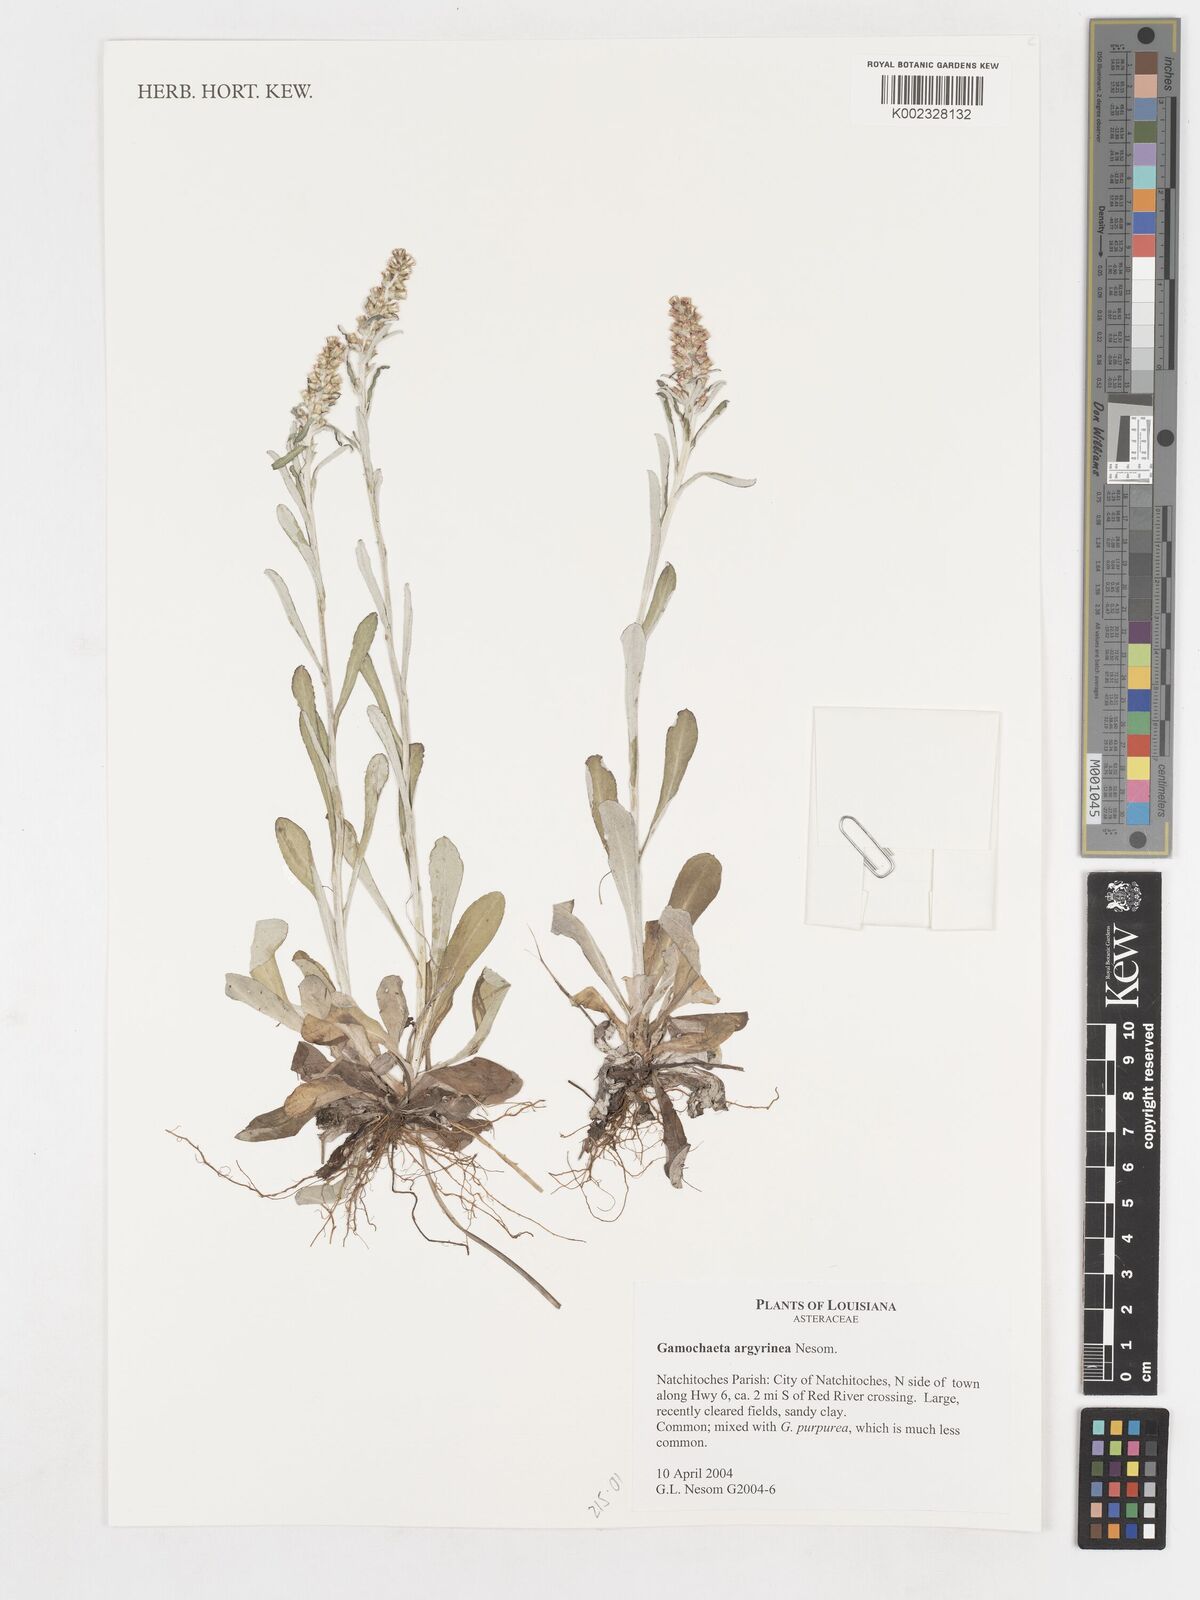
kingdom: Plantae
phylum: Tracheophyta
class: Magnoliopsida
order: Asterales
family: Asteraceae
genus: Gamochaeta
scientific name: Gamochaeta argyrinea
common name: Silvery cudweed
